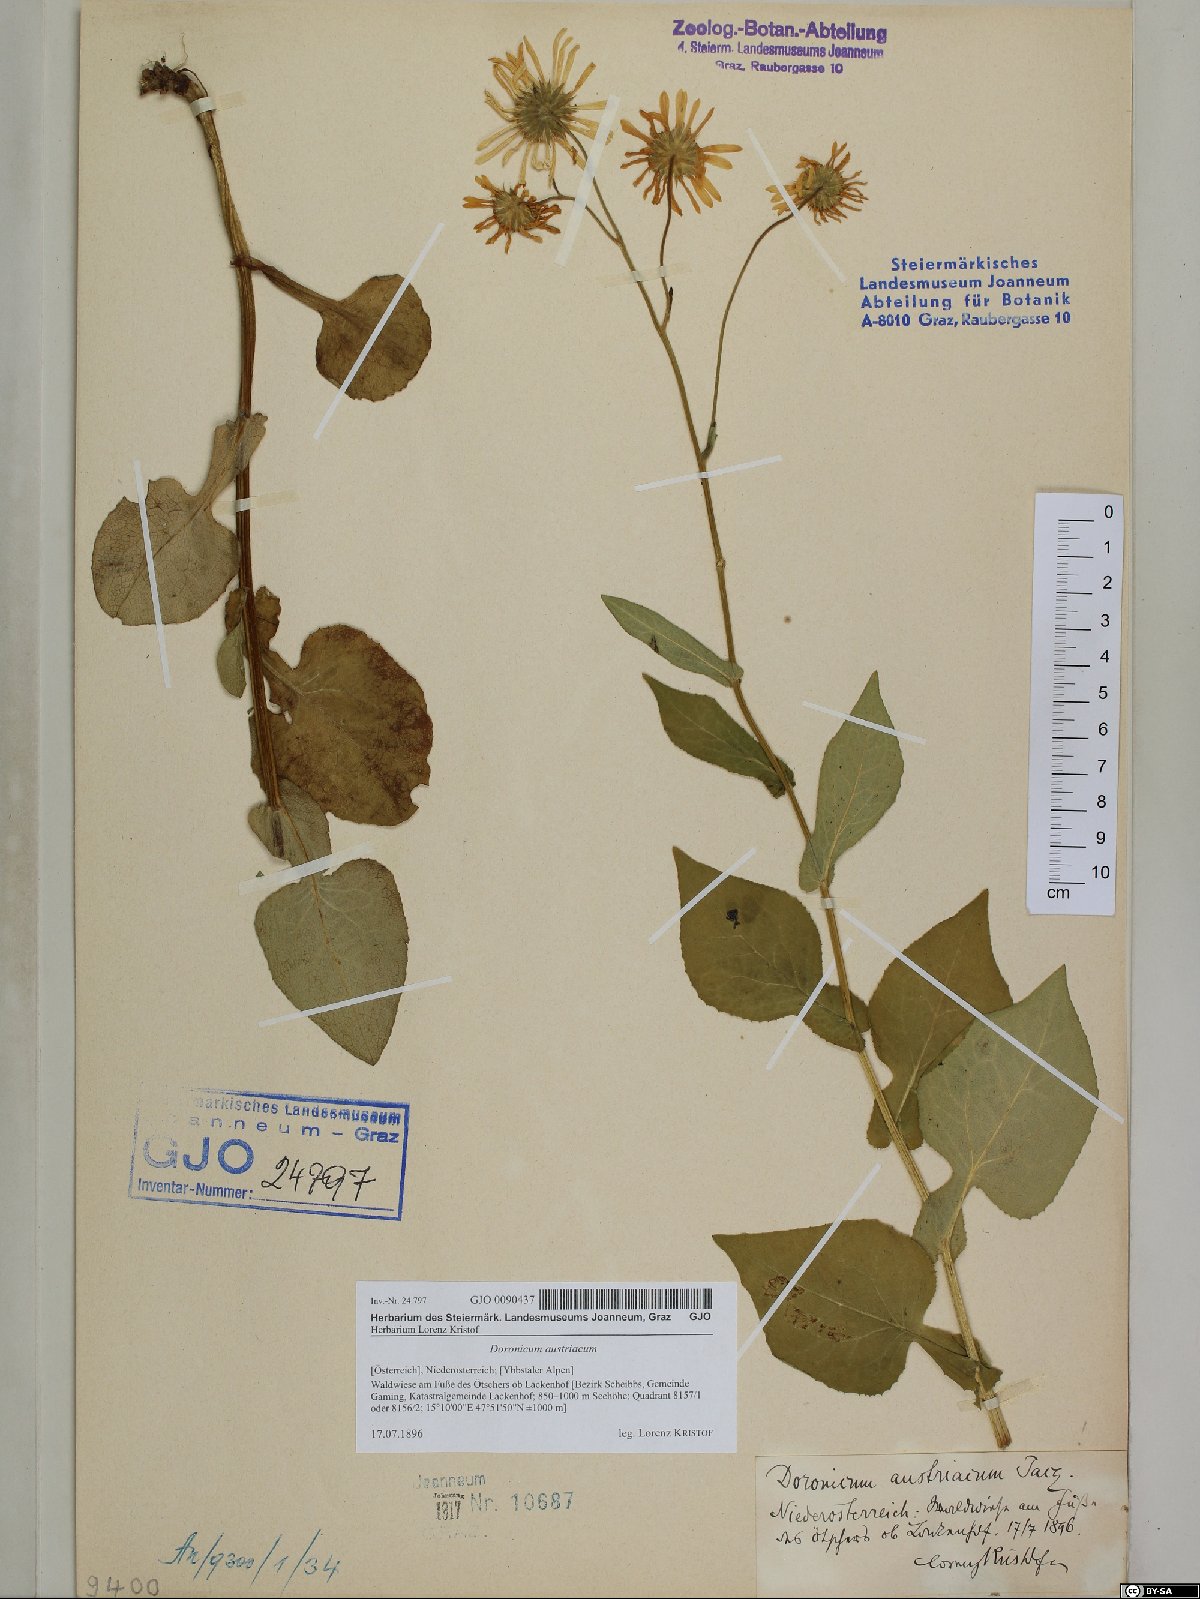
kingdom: Plantae
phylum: Tracheophyta
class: Magnoliopsida
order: Asterales
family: Asteraceae
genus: Doronicum
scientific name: Doronicum austriacum
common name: Austrian leopard's-bane
